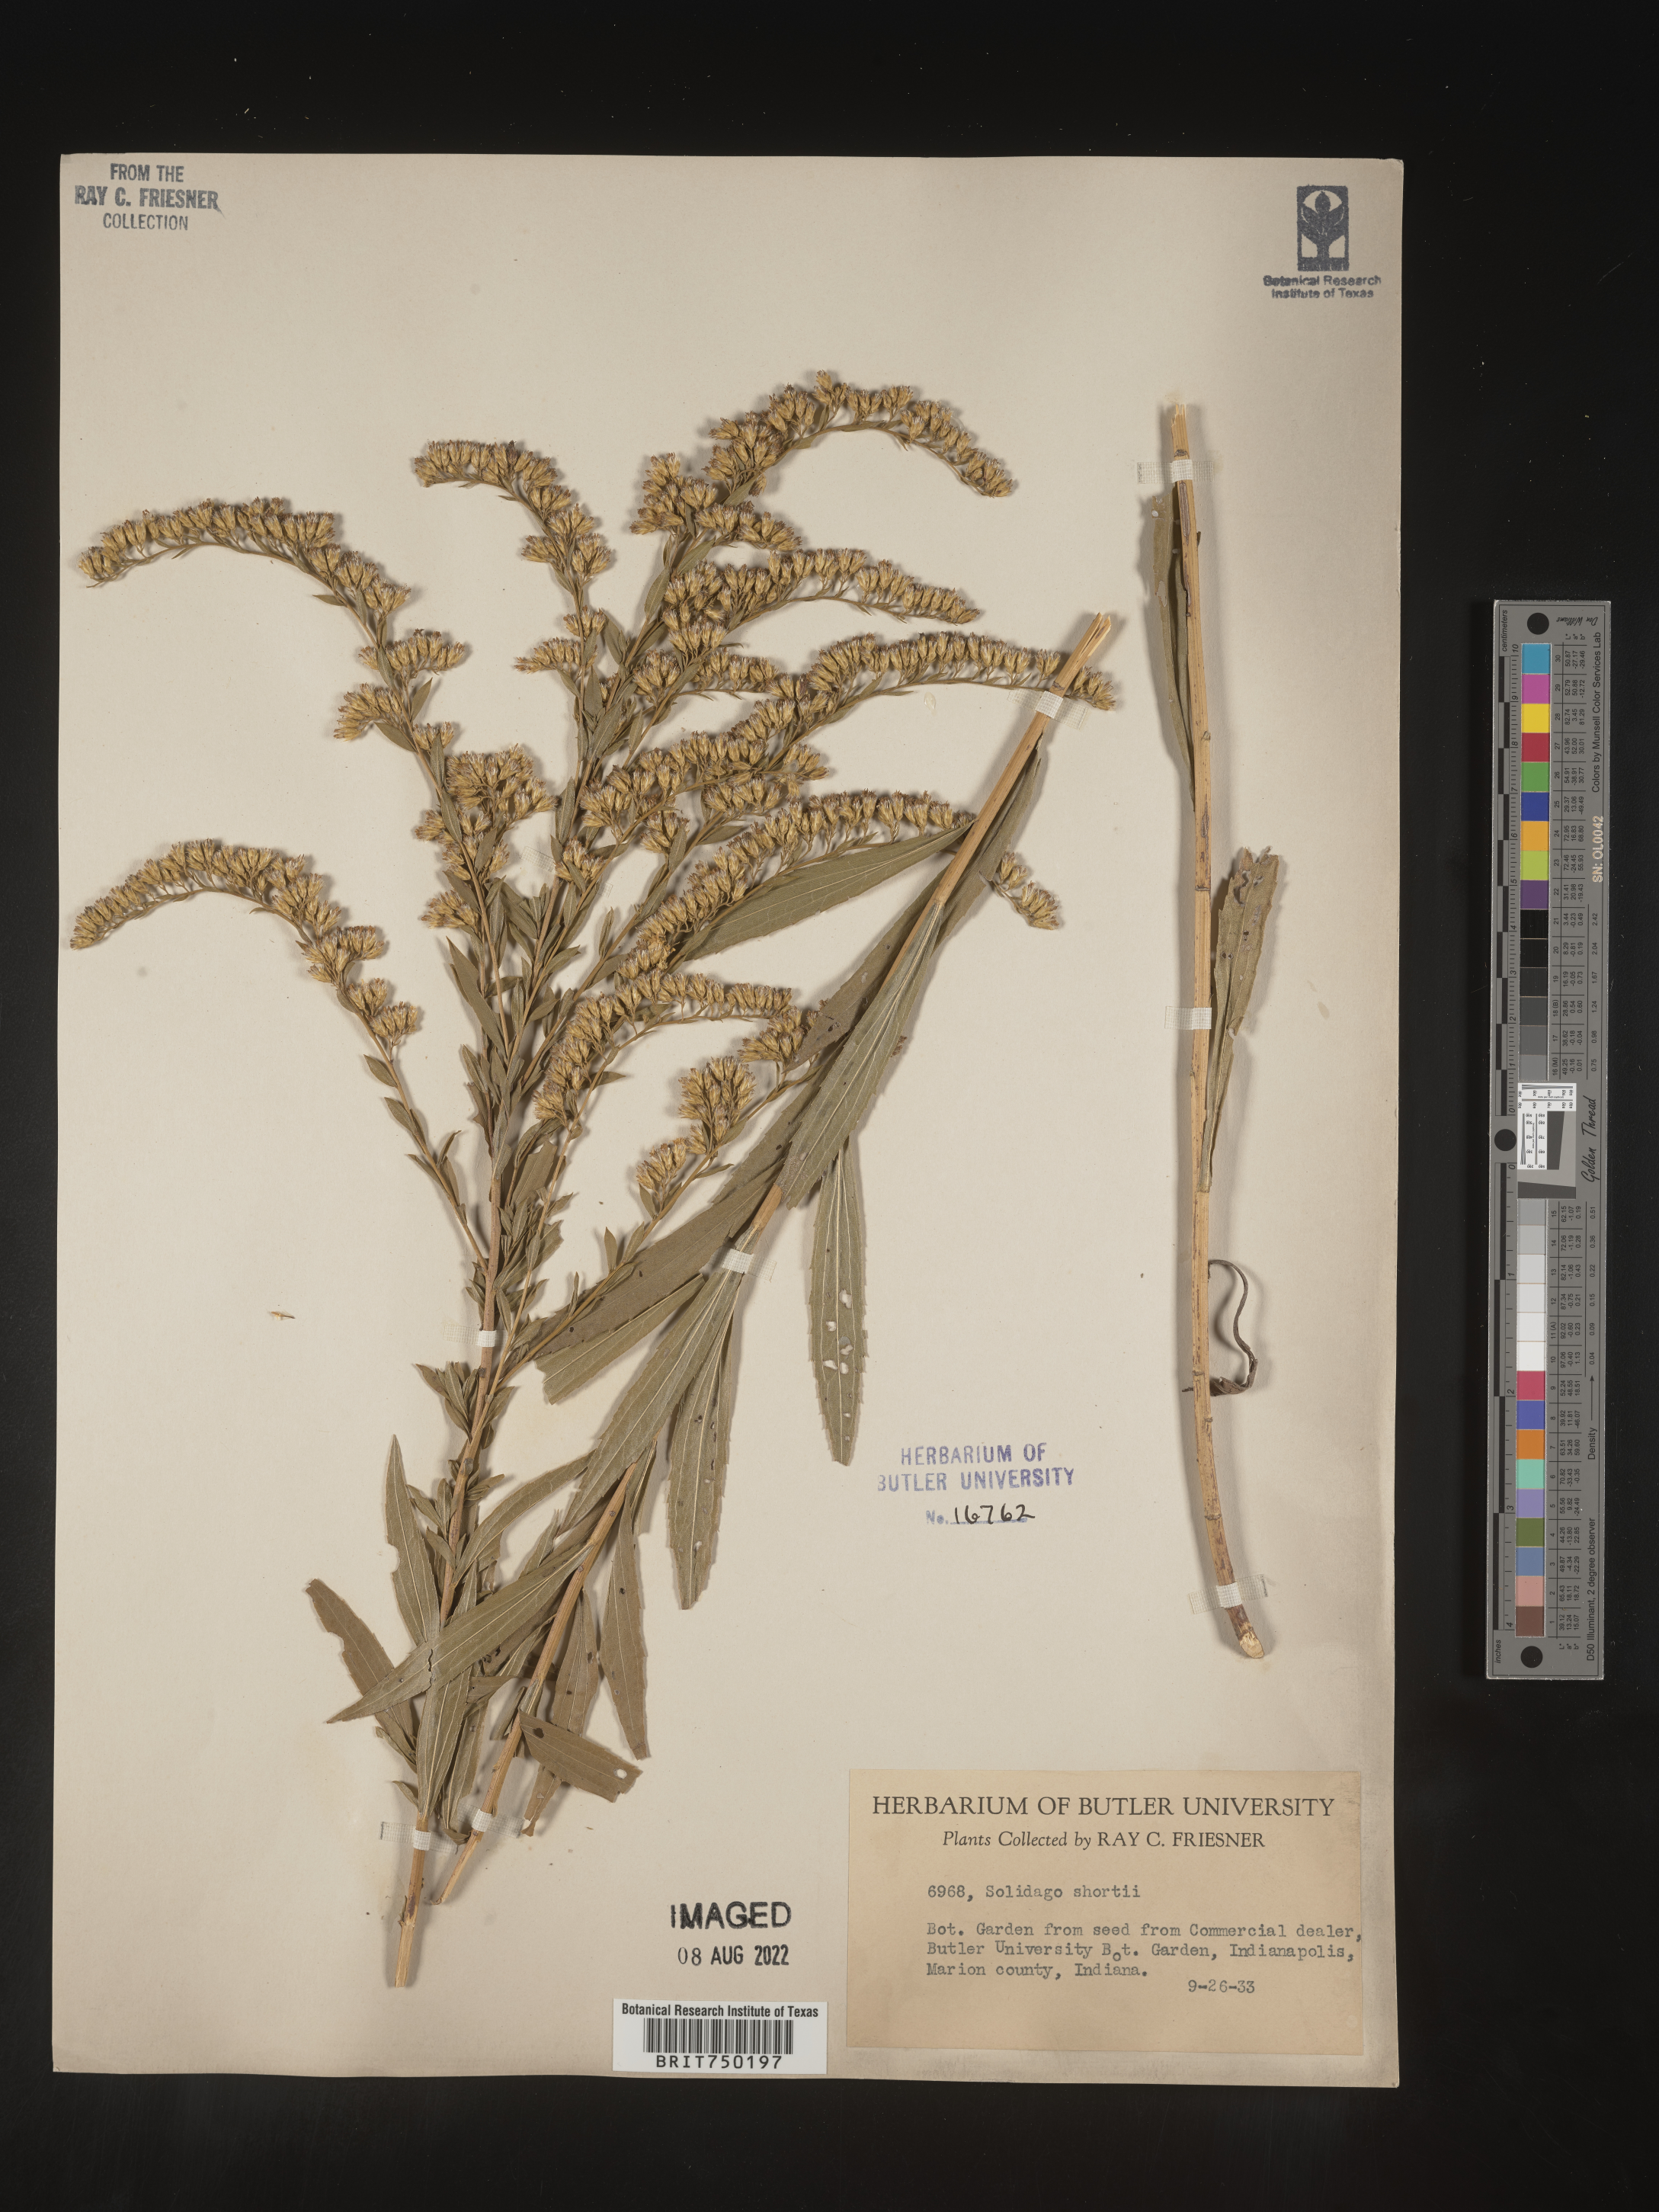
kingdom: Plantae
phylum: Tracheophyta
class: Magnoliopsida
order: Asterales
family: Asteraceae
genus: Solidago
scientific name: Solidago
